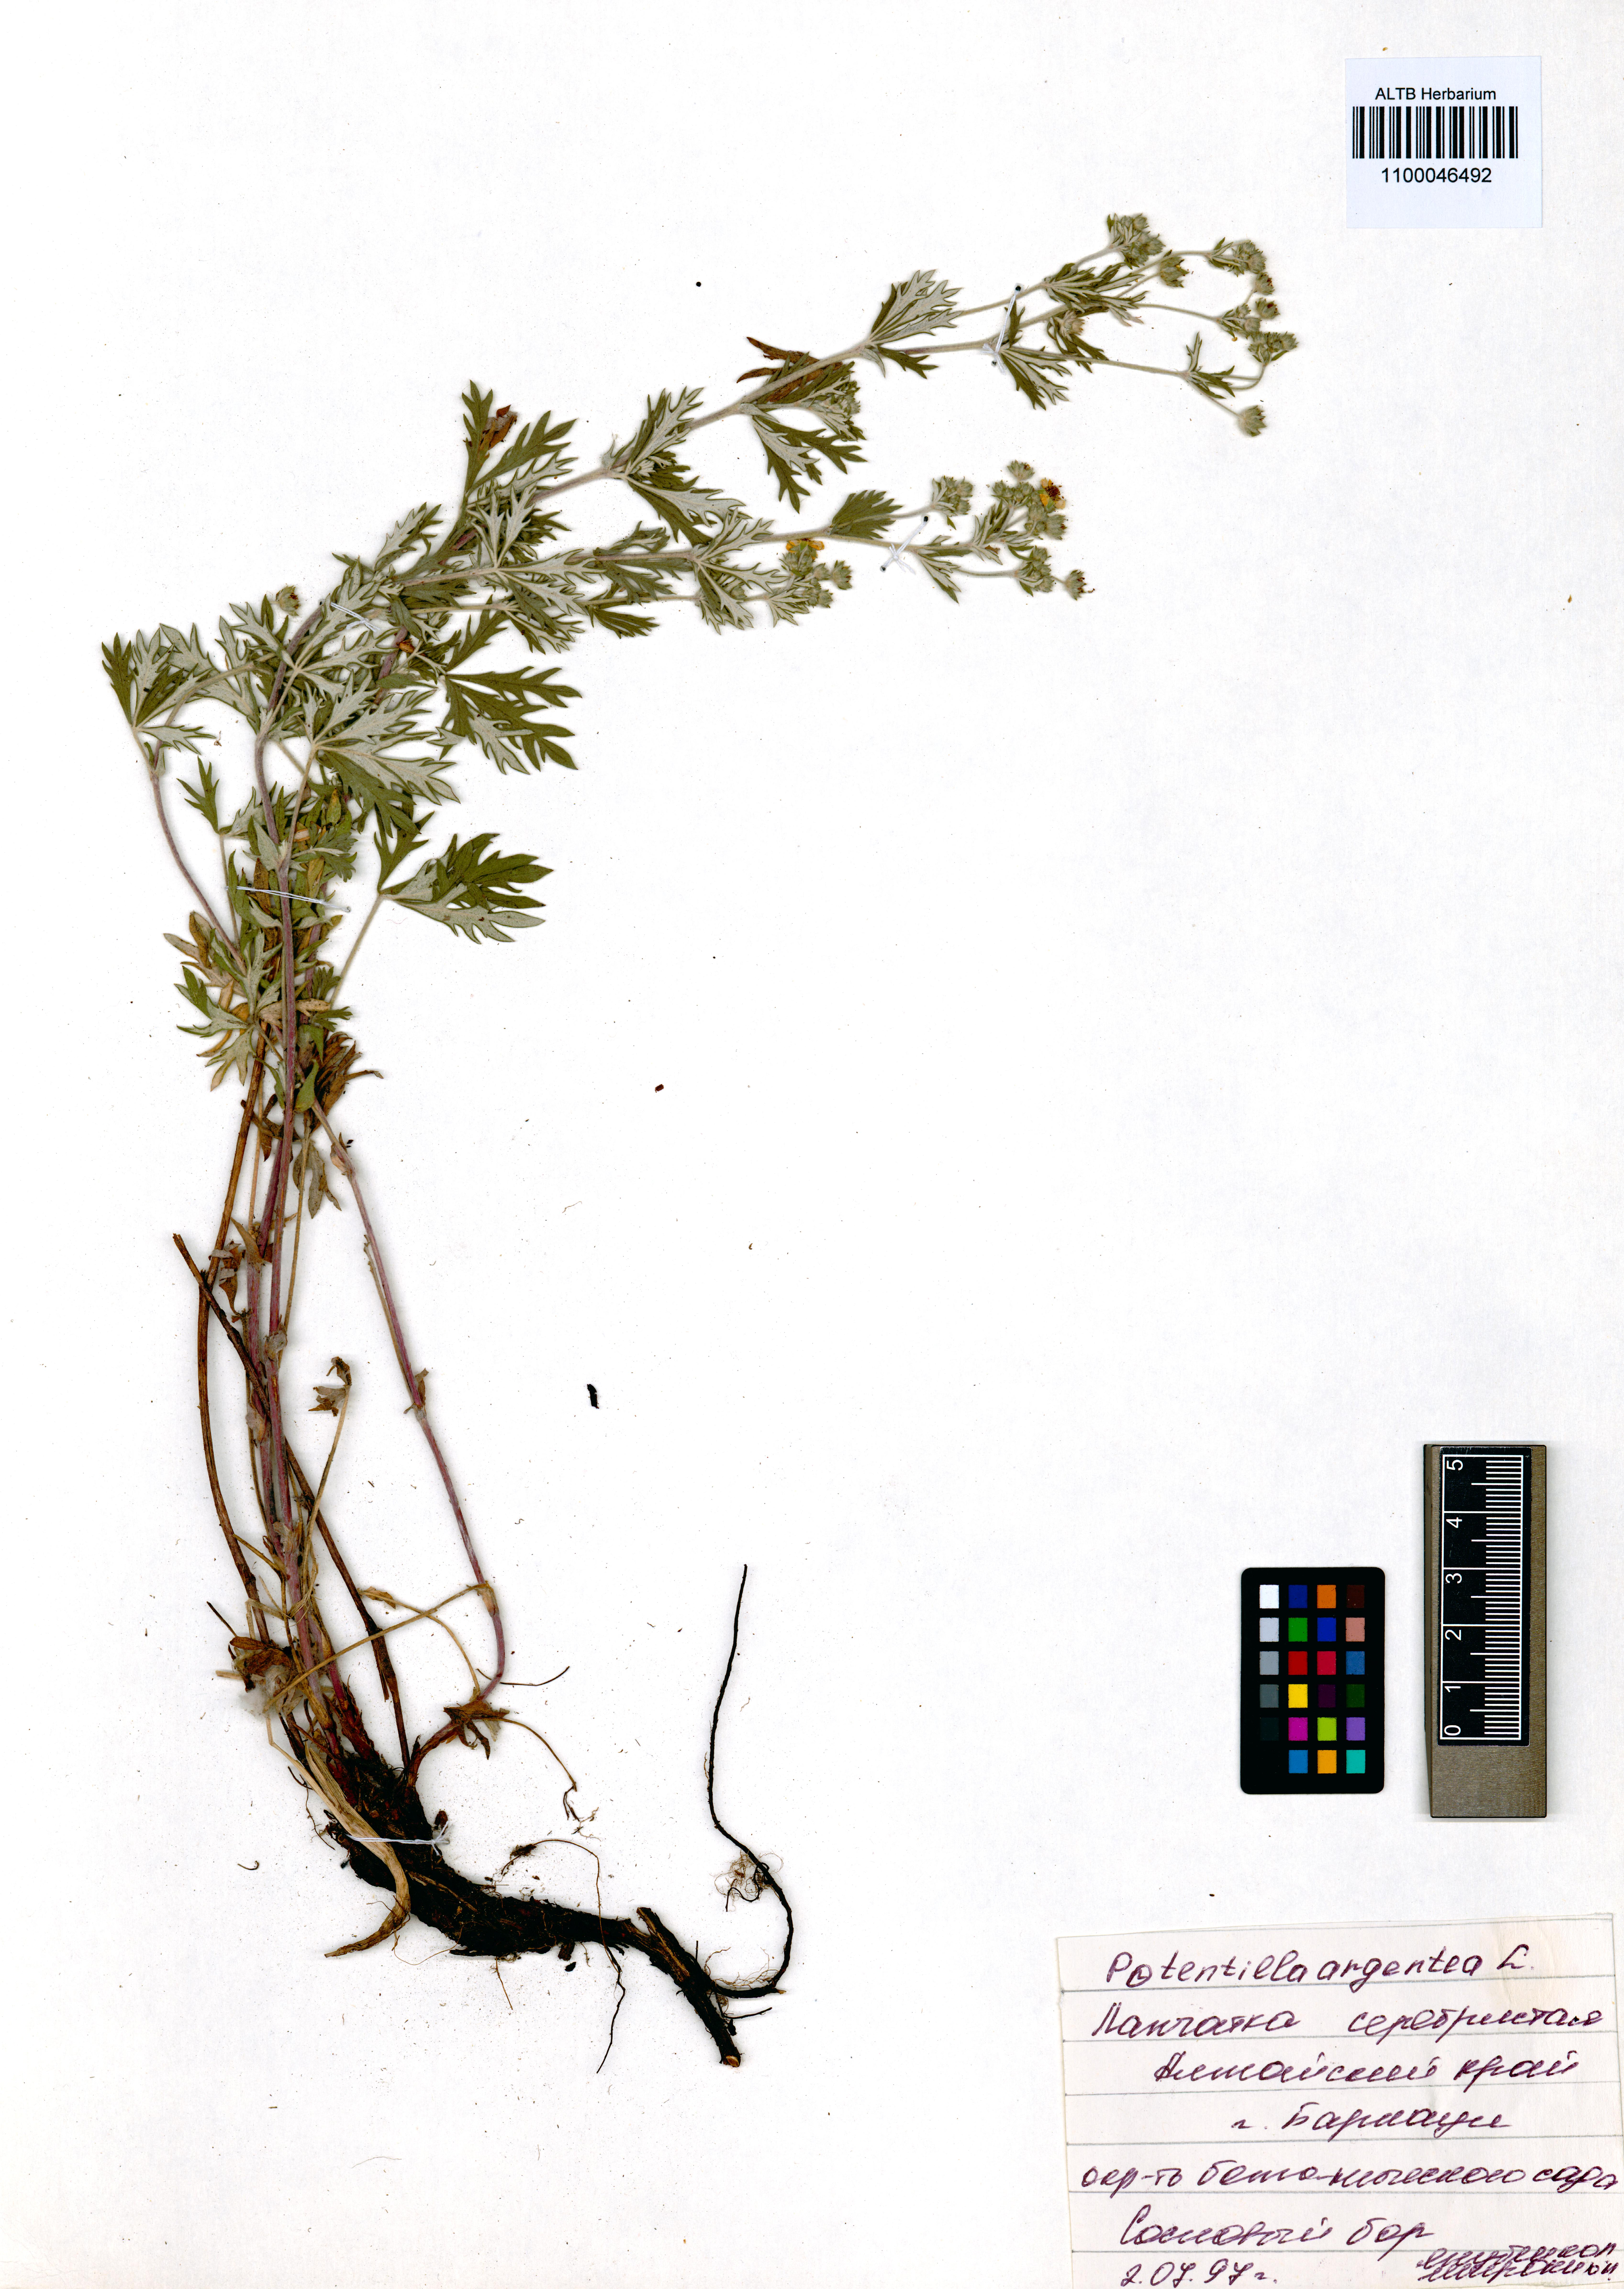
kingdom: Plantae
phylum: Tracheophyta
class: Magnoliopsida
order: Rosales
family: Rosaceae
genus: Potentilla
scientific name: Potentilla argentea
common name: Hoary cinquefoil
